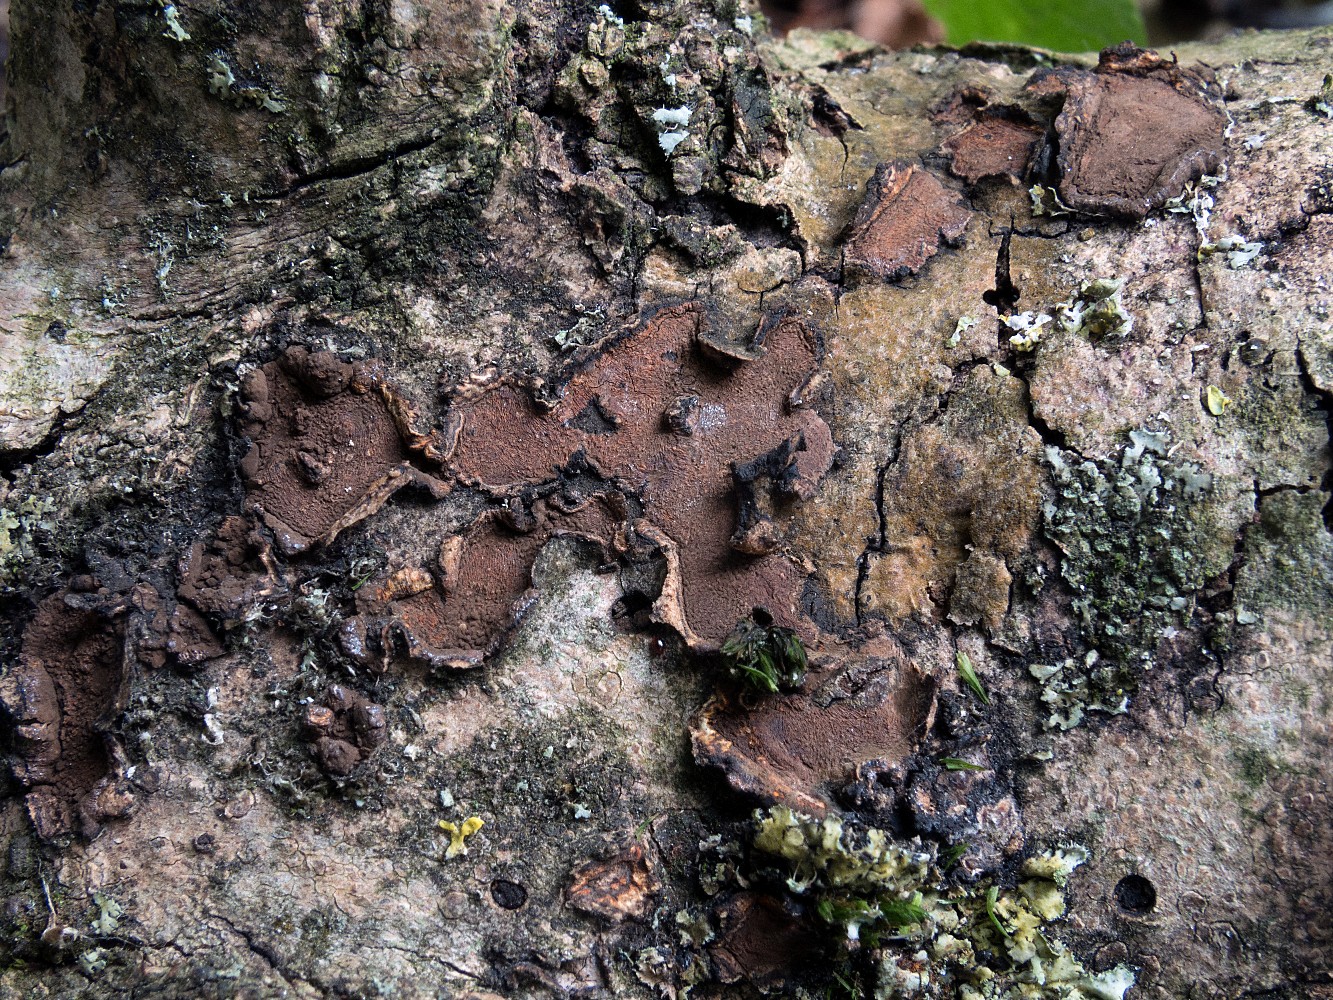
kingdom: Fungi
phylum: Ascomycota
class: Sordariomycetes
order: Xylariales
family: Hypoxylaceae
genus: Hypoxylon
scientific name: Hypoxylon cercidicola
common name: skive-kulbær
